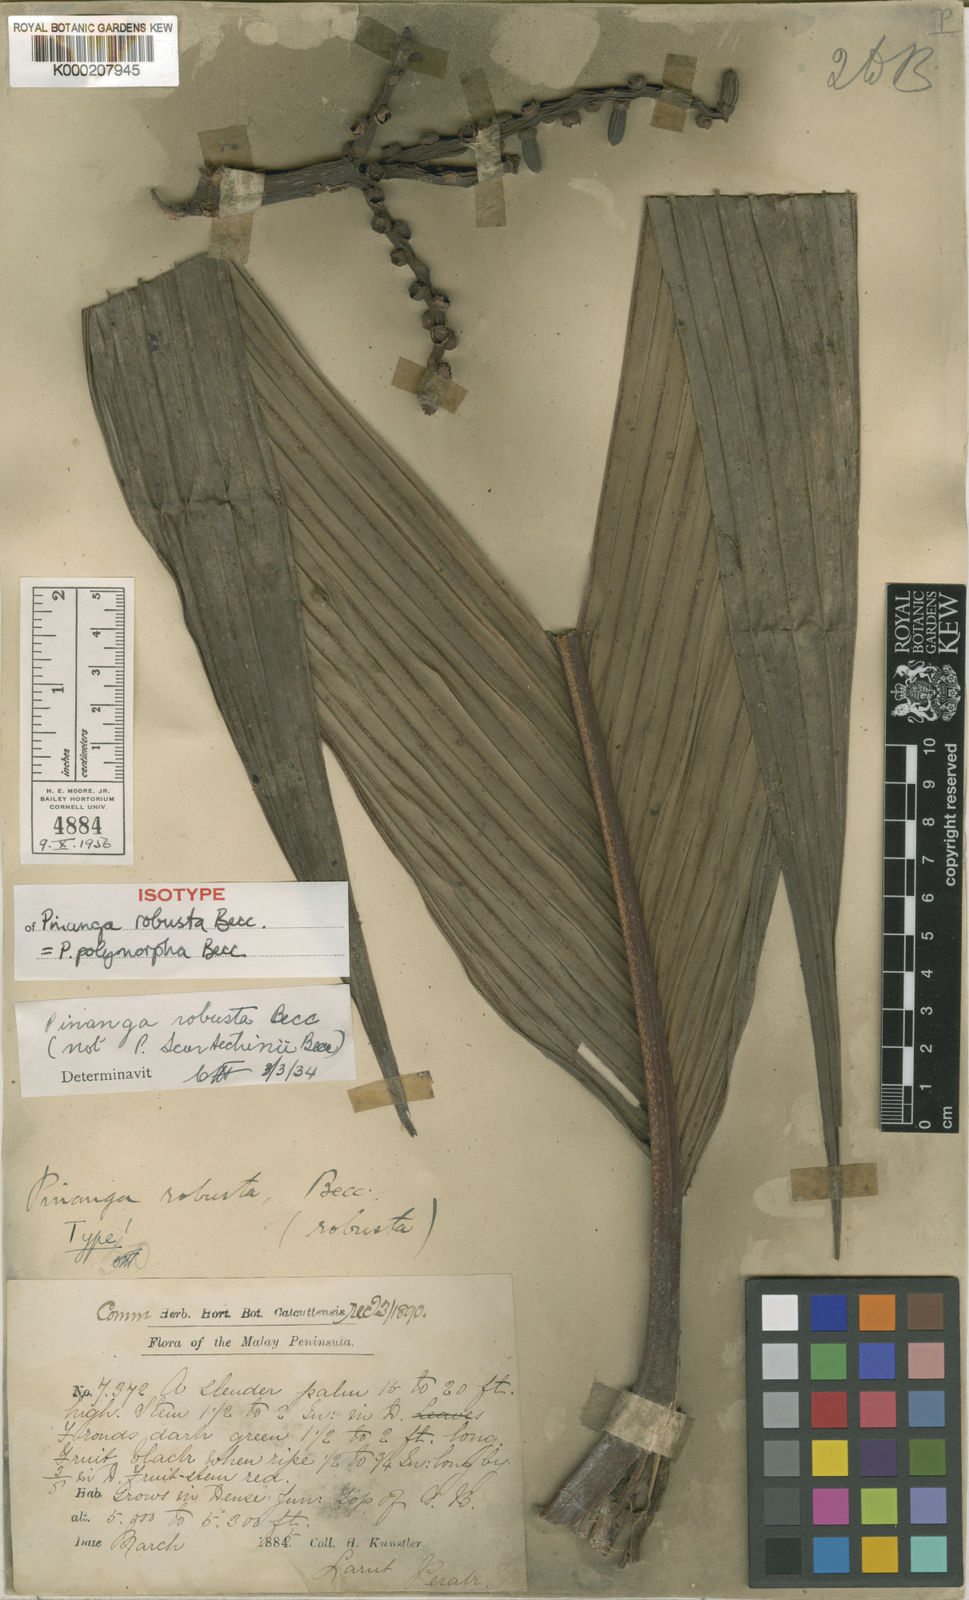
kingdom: Plantae
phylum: Tracheophyta
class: Liliopsida
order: Arecales
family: Arecaceae
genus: Pinanga
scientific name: Pinanga polymorpha
